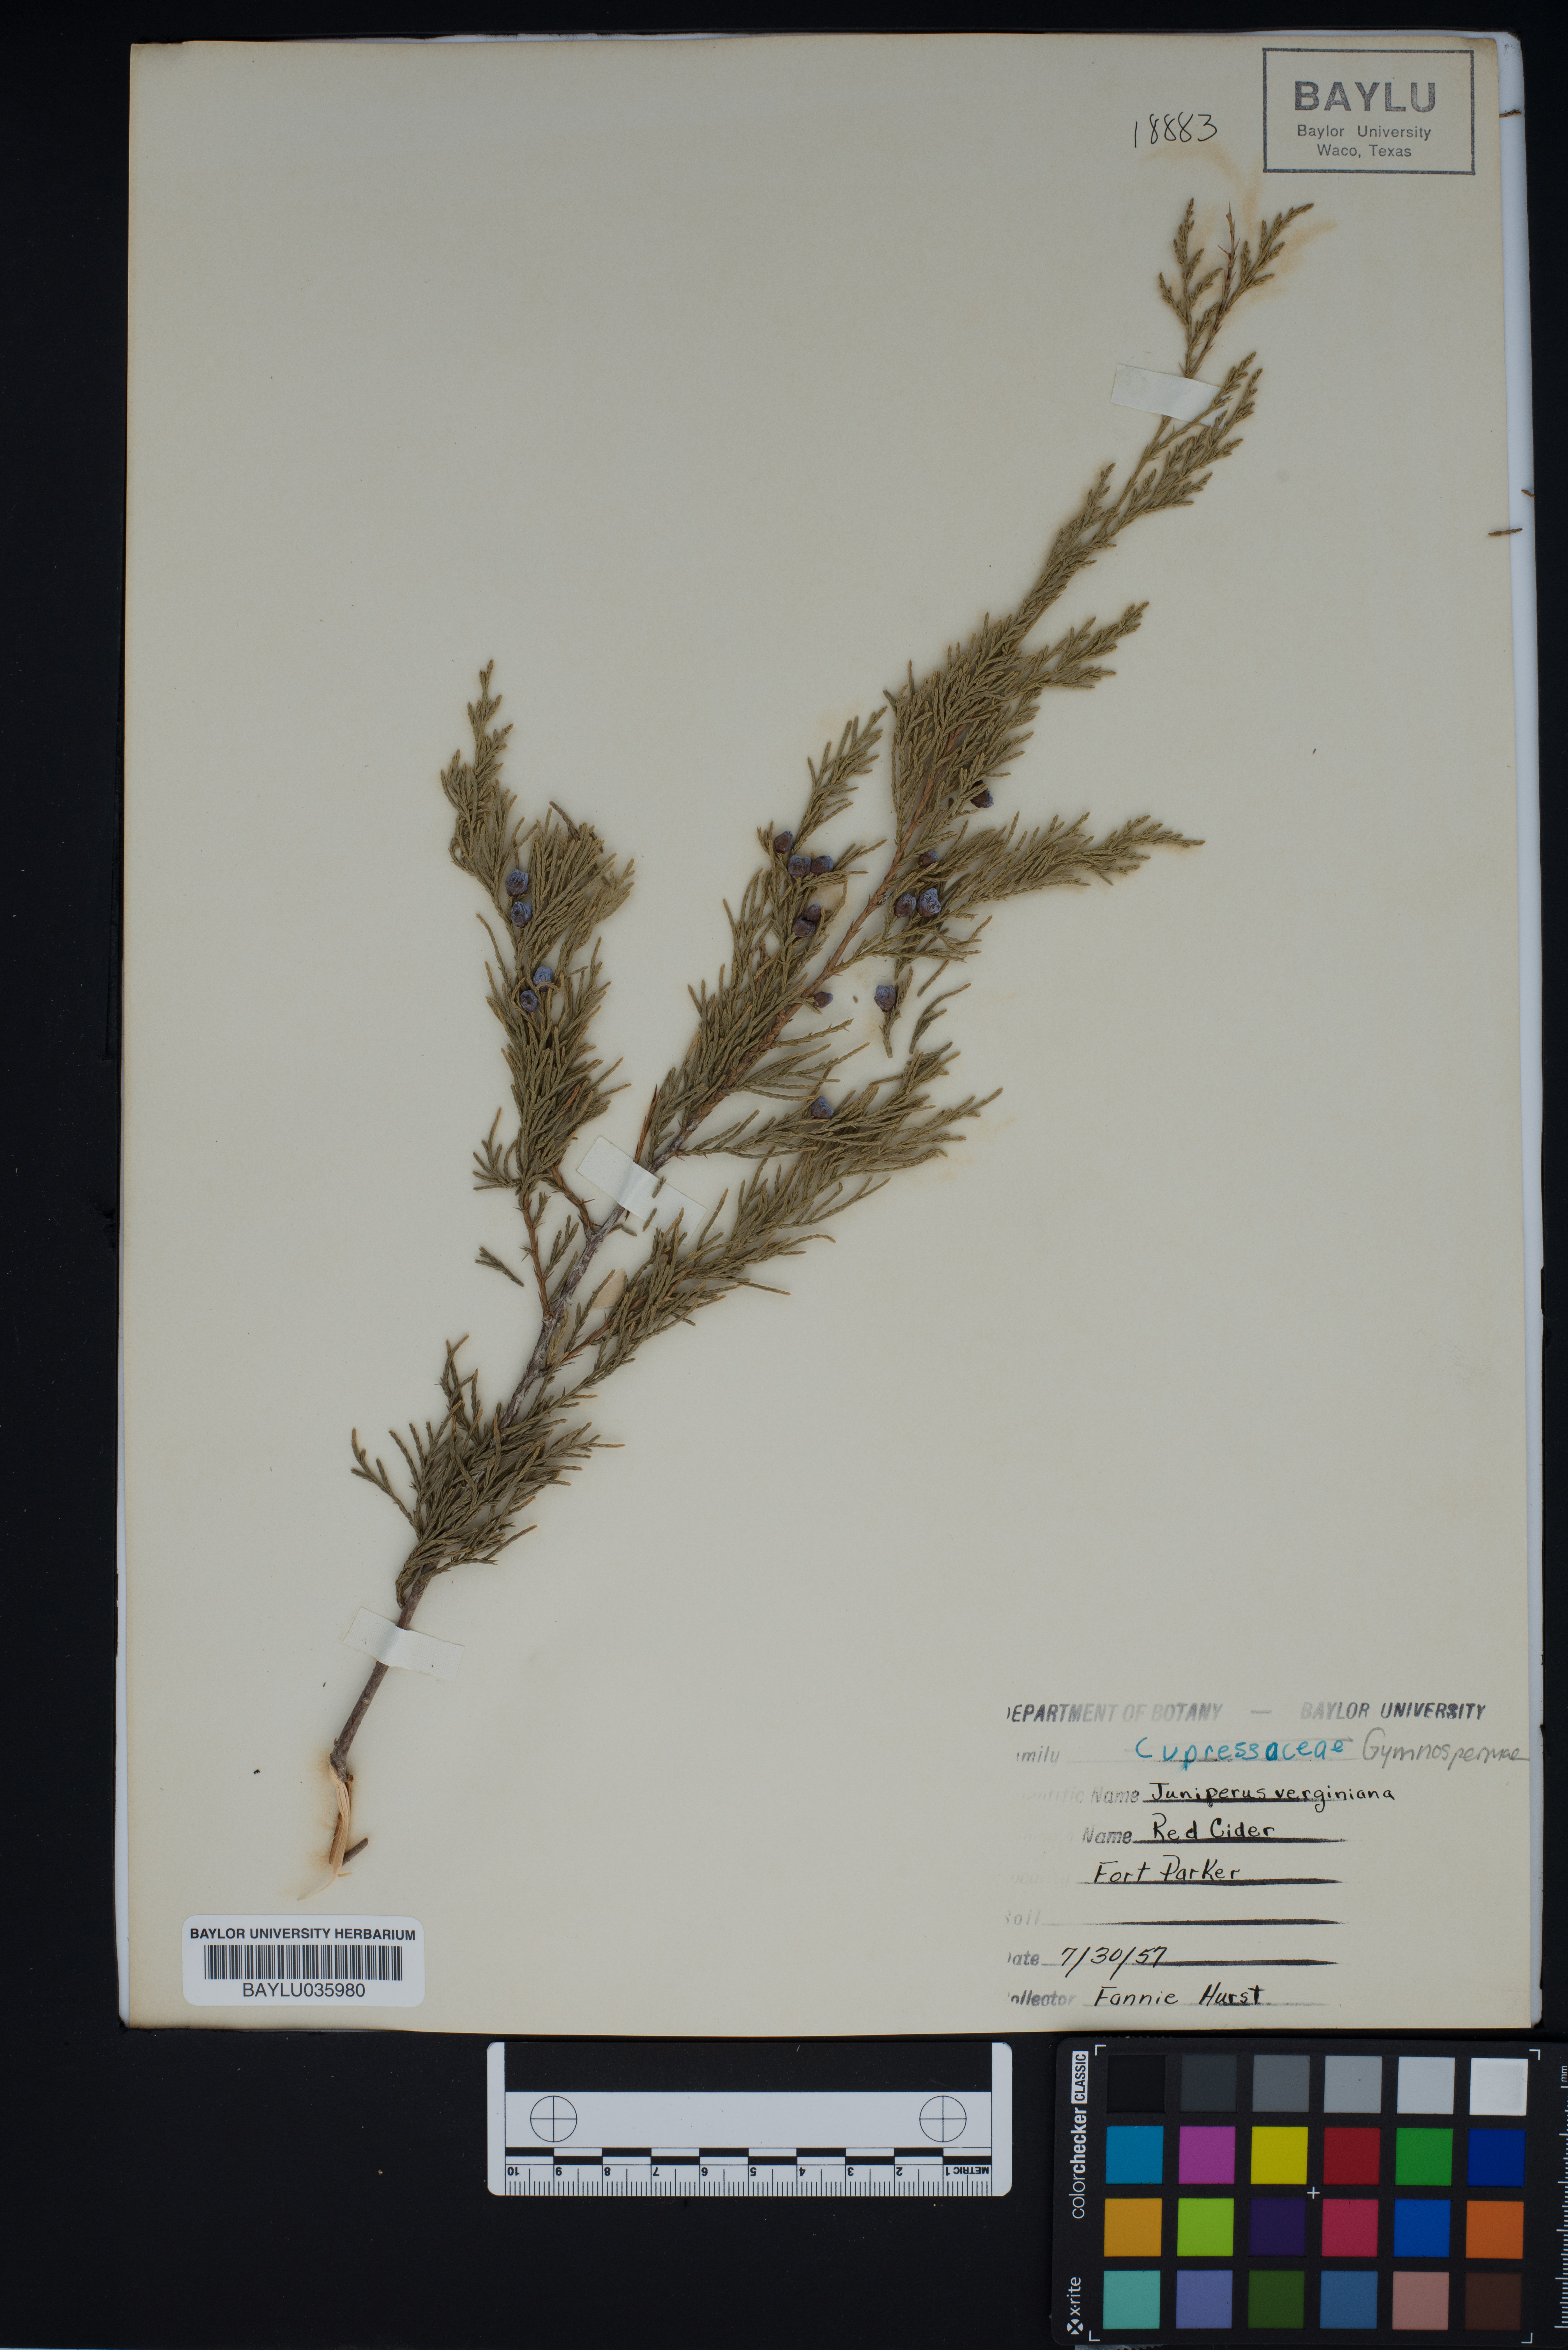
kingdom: Plantae
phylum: Tracheophyta
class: Pinopsida
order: Pinales
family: Cupressaceae
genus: Juniperus
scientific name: Juniperus virginiana
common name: Red juniper
